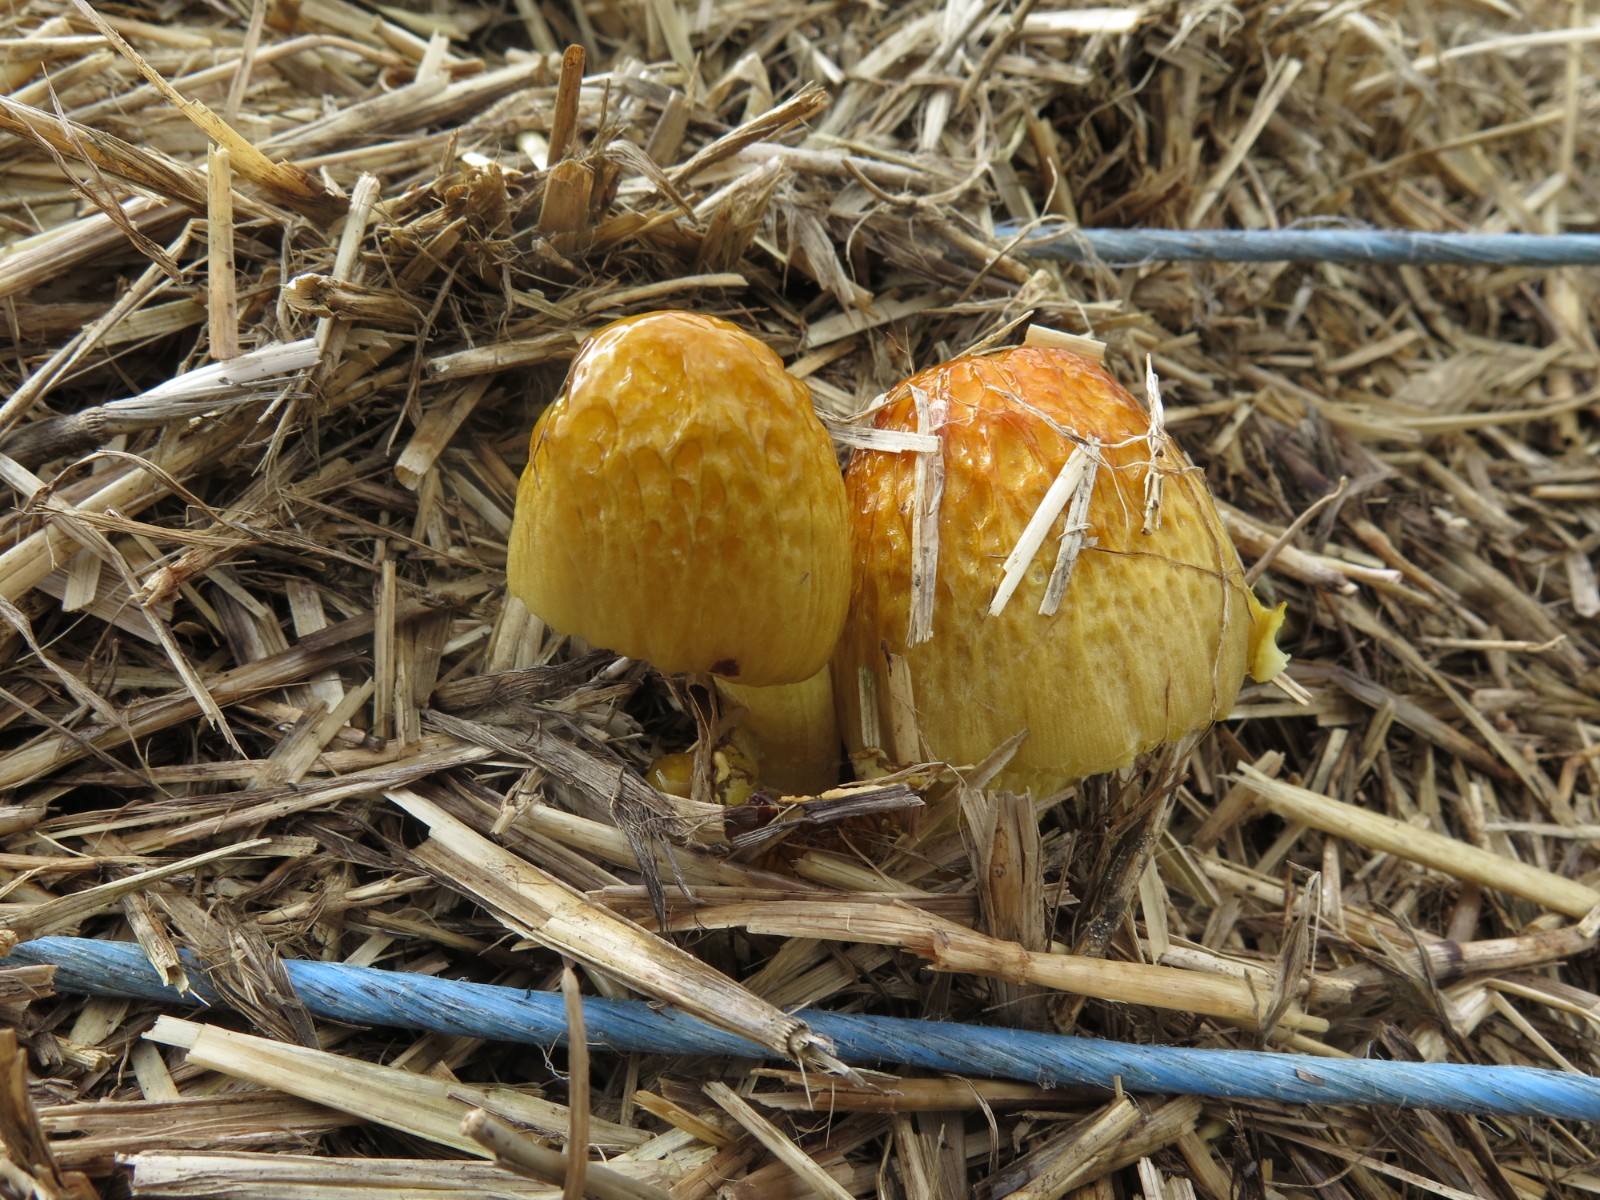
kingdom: Fungi
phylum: Basidiomycota
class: Agaricomycetes
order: Agaricales
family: Bolbitiaceae
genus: Bolbitius
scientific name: Bolbitius titubans
